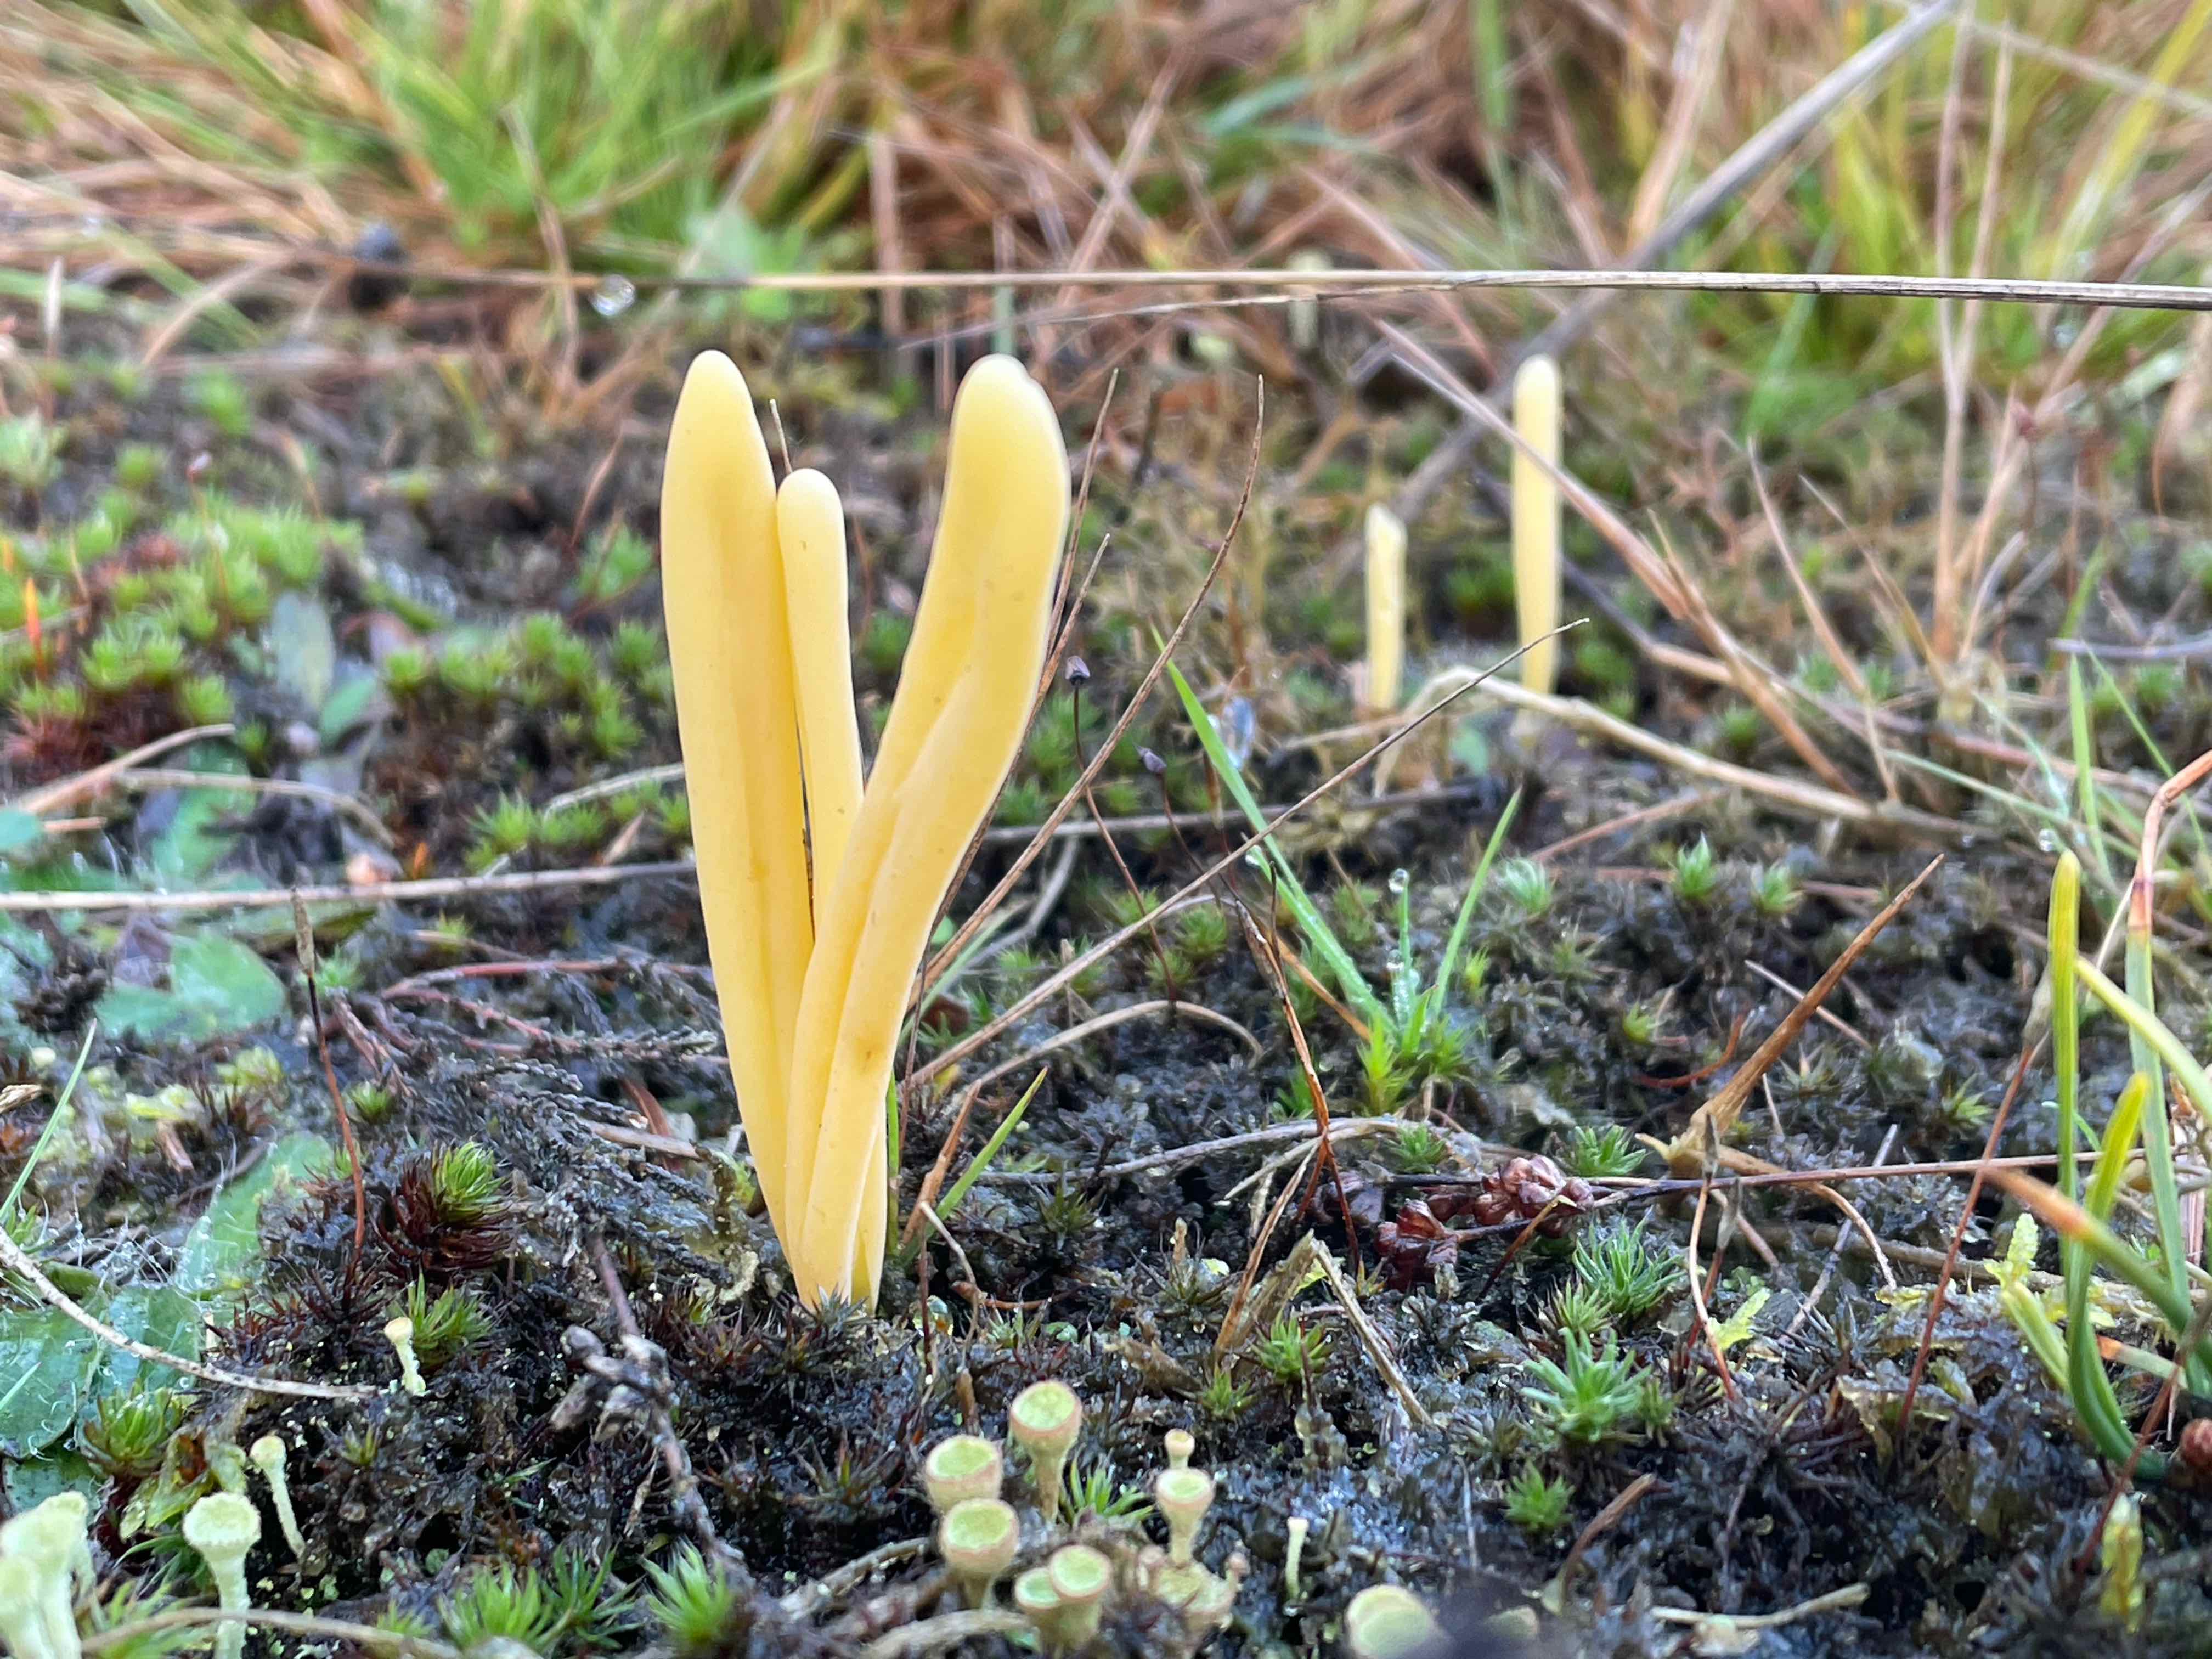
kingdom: Fungi
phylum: Basidiomycota
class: Agaricomycetes
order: Agaricales
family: Clavariaceae
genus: Clavaria
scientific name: Clavaria argillacea
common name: lerfarvet køllesvamp
